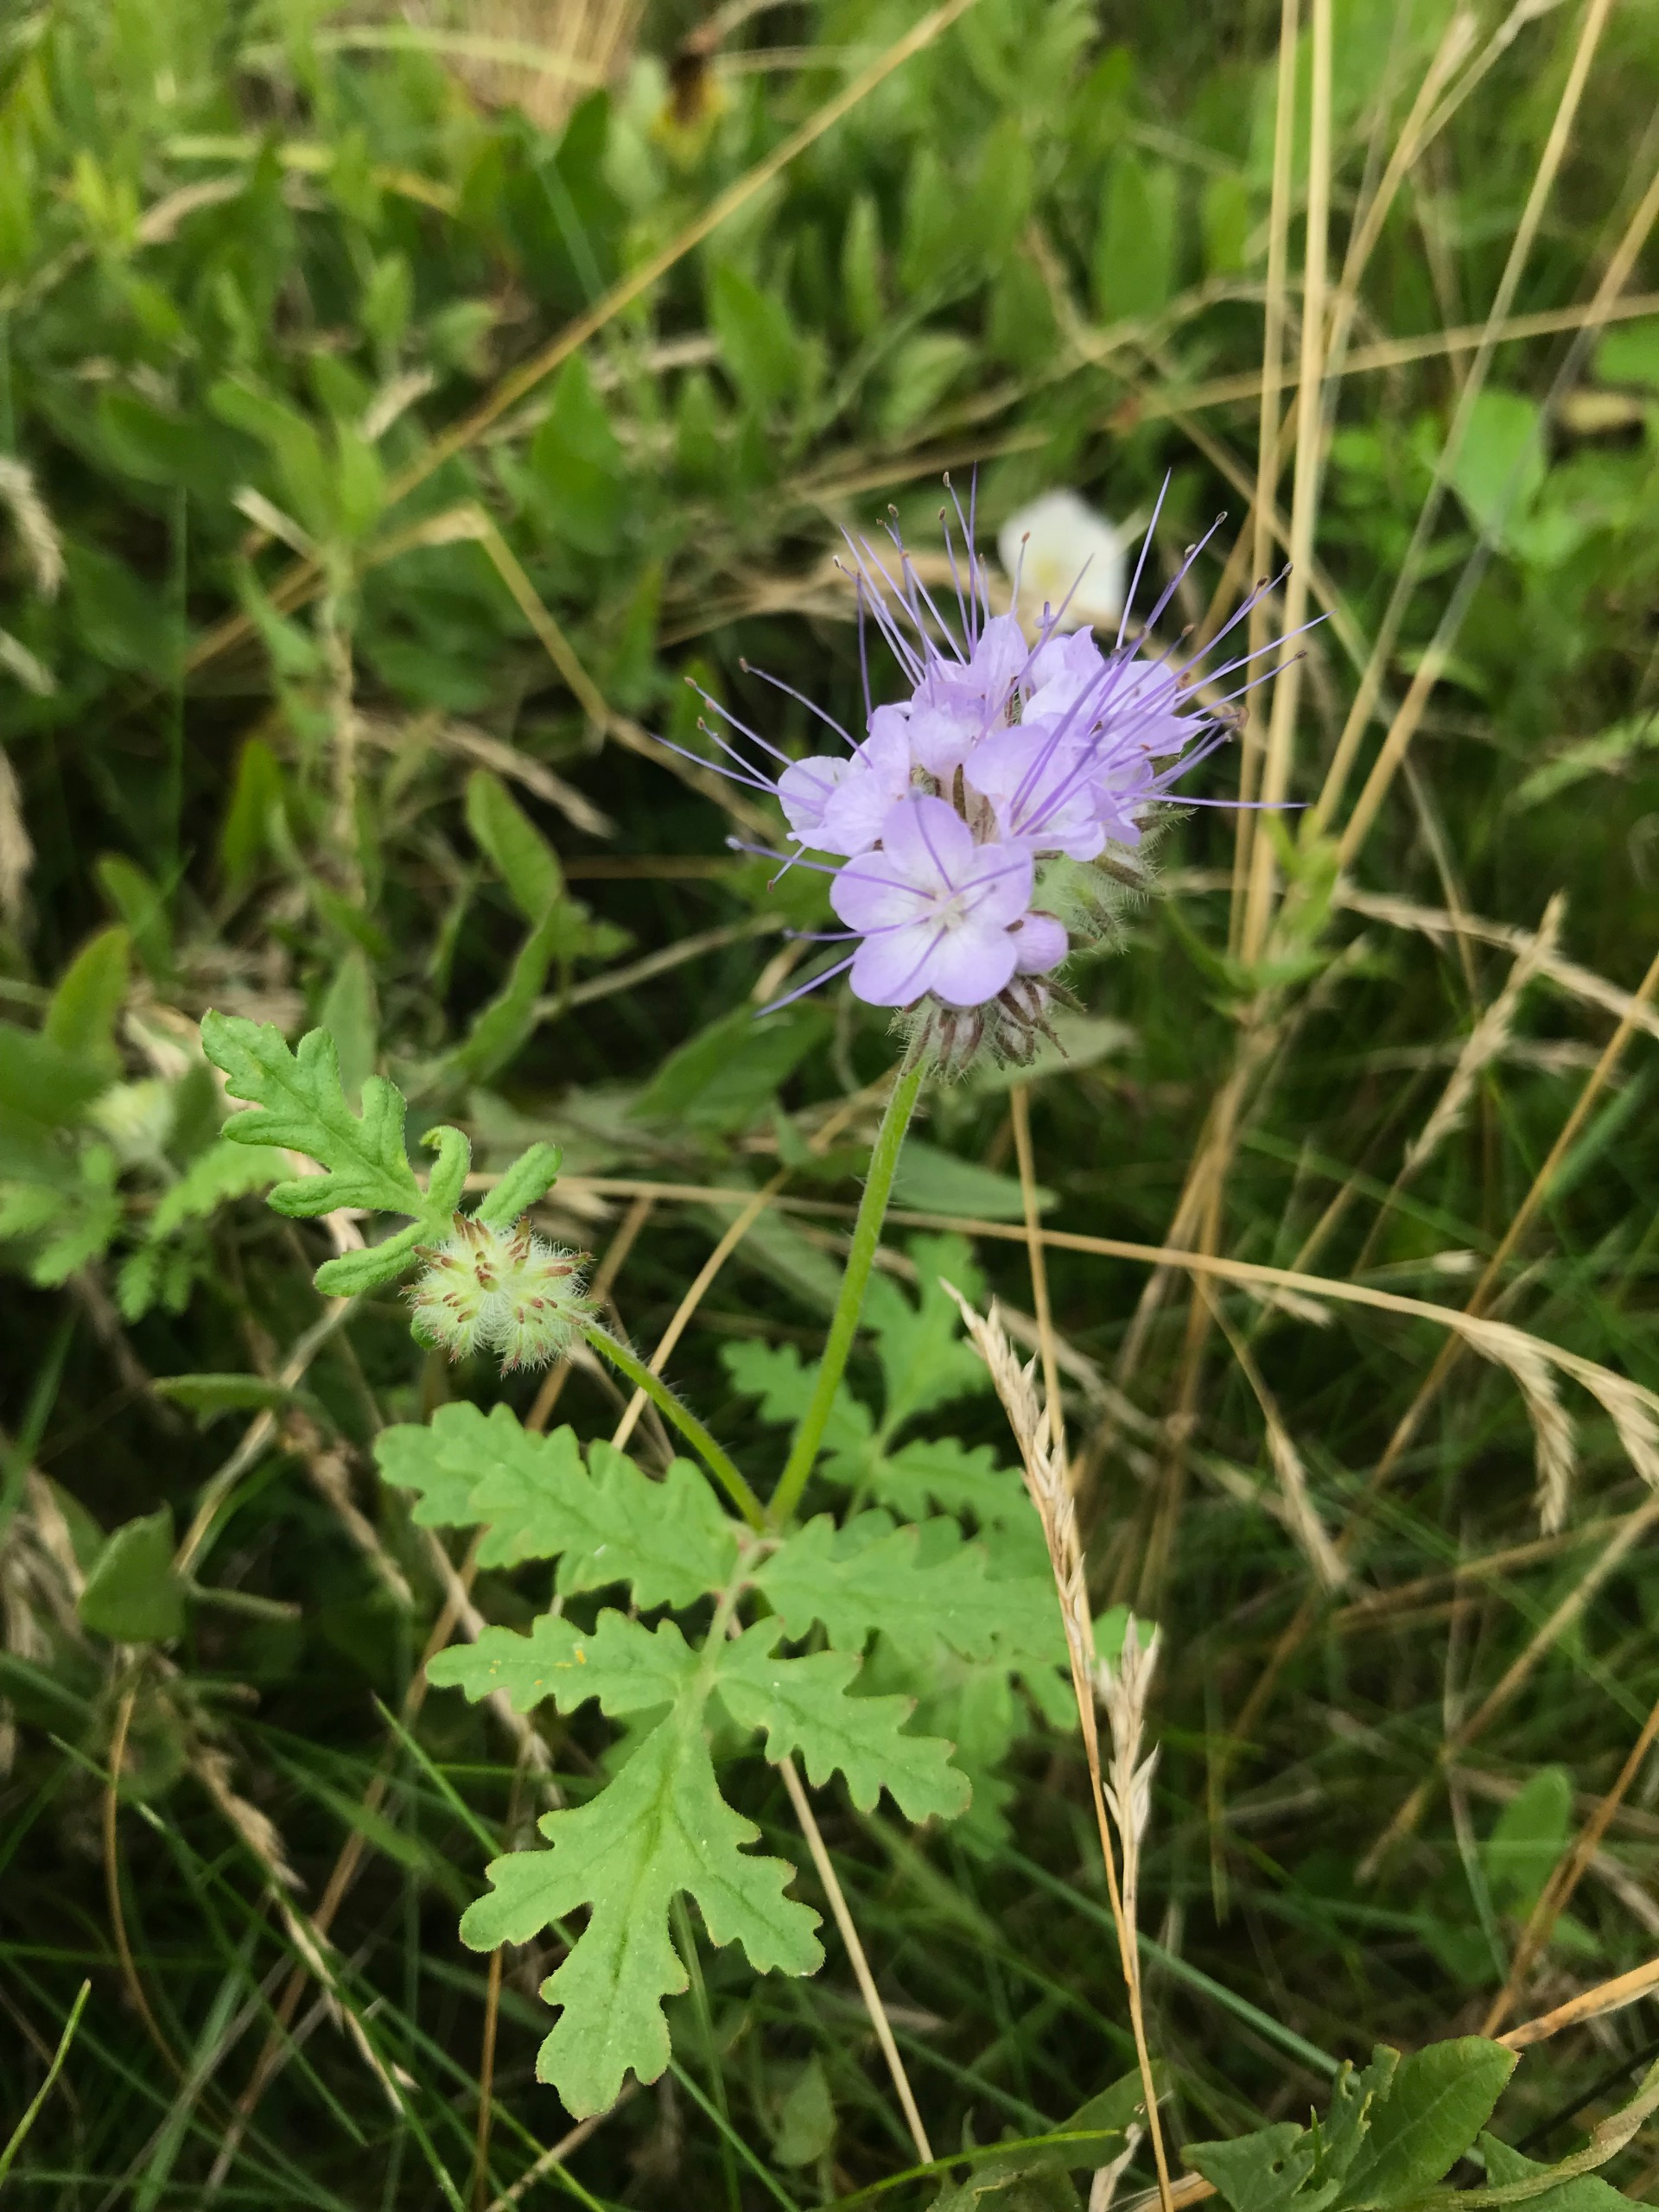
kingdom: Plantae
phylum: Tracheophyta
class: Magnoliopsida
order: Boraginales
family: Hydrophyllaceae
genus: Phacelia
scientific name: Phacelia tanacetifolia
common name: Honningurt
